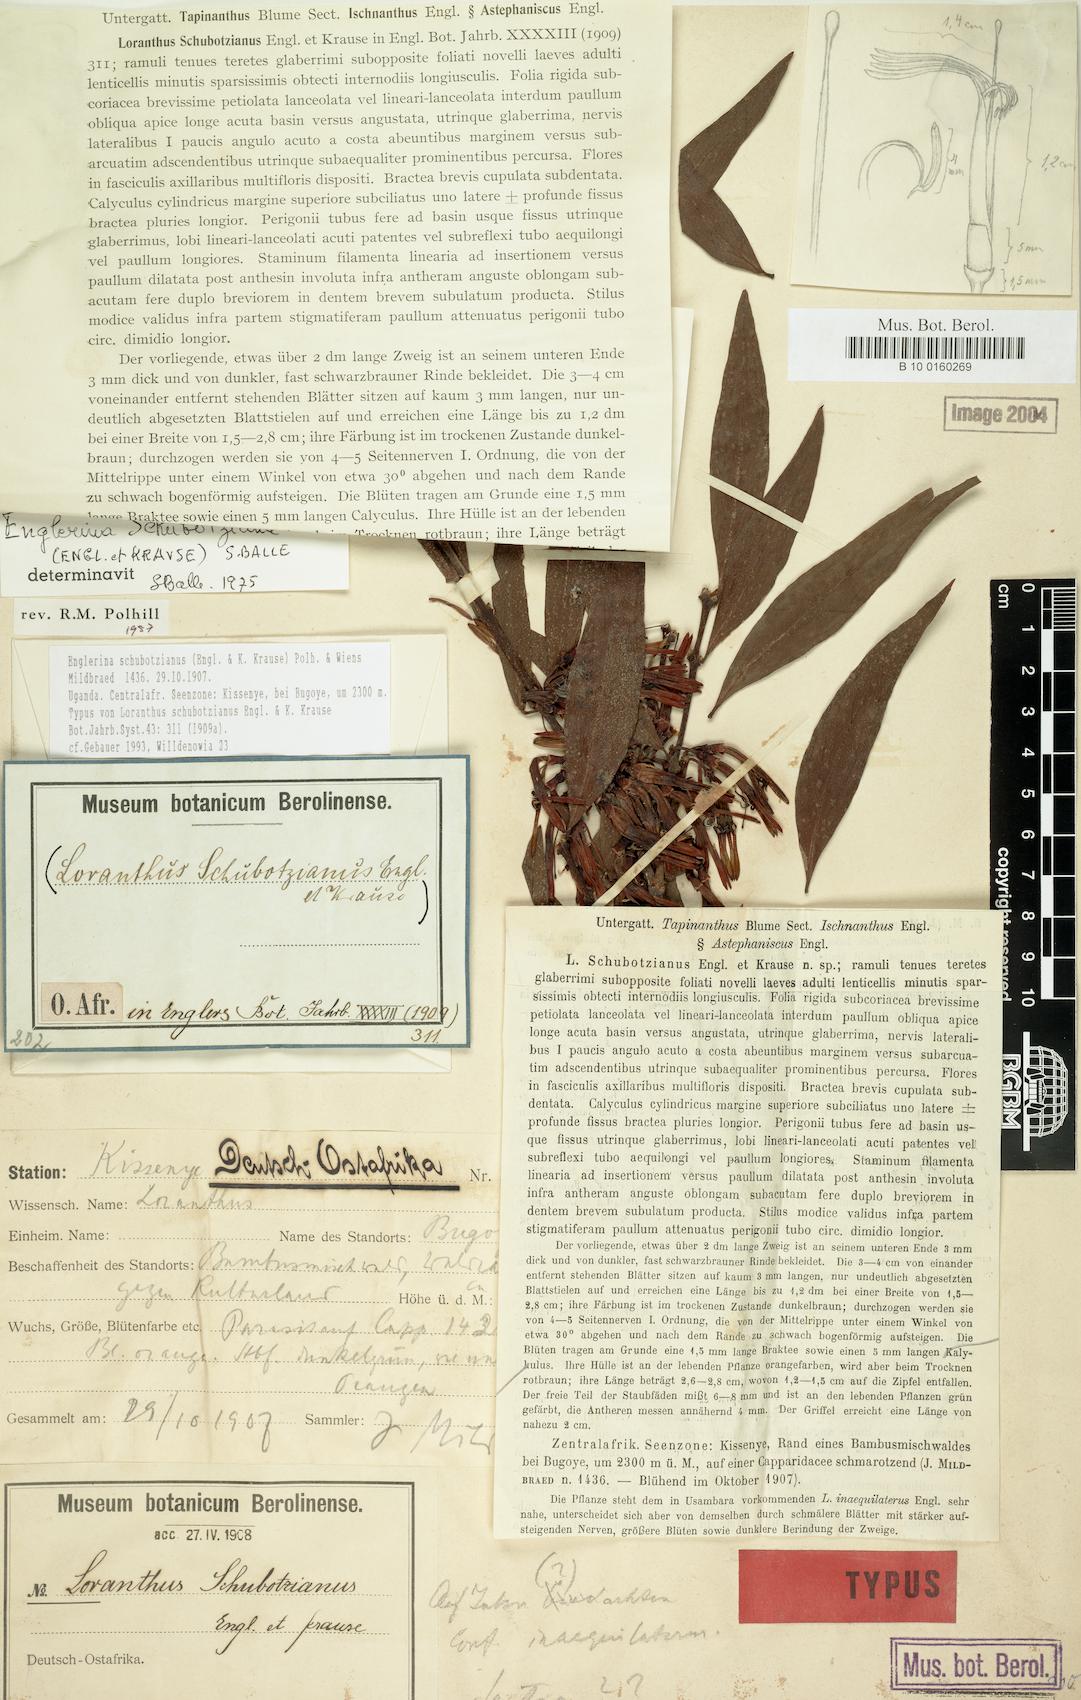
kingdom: Plantae
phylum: Tracheophyta
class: Magnoliopsida
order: Santalales
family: Loranthaceae
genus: Englerina
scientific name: Englerina schubotziana
